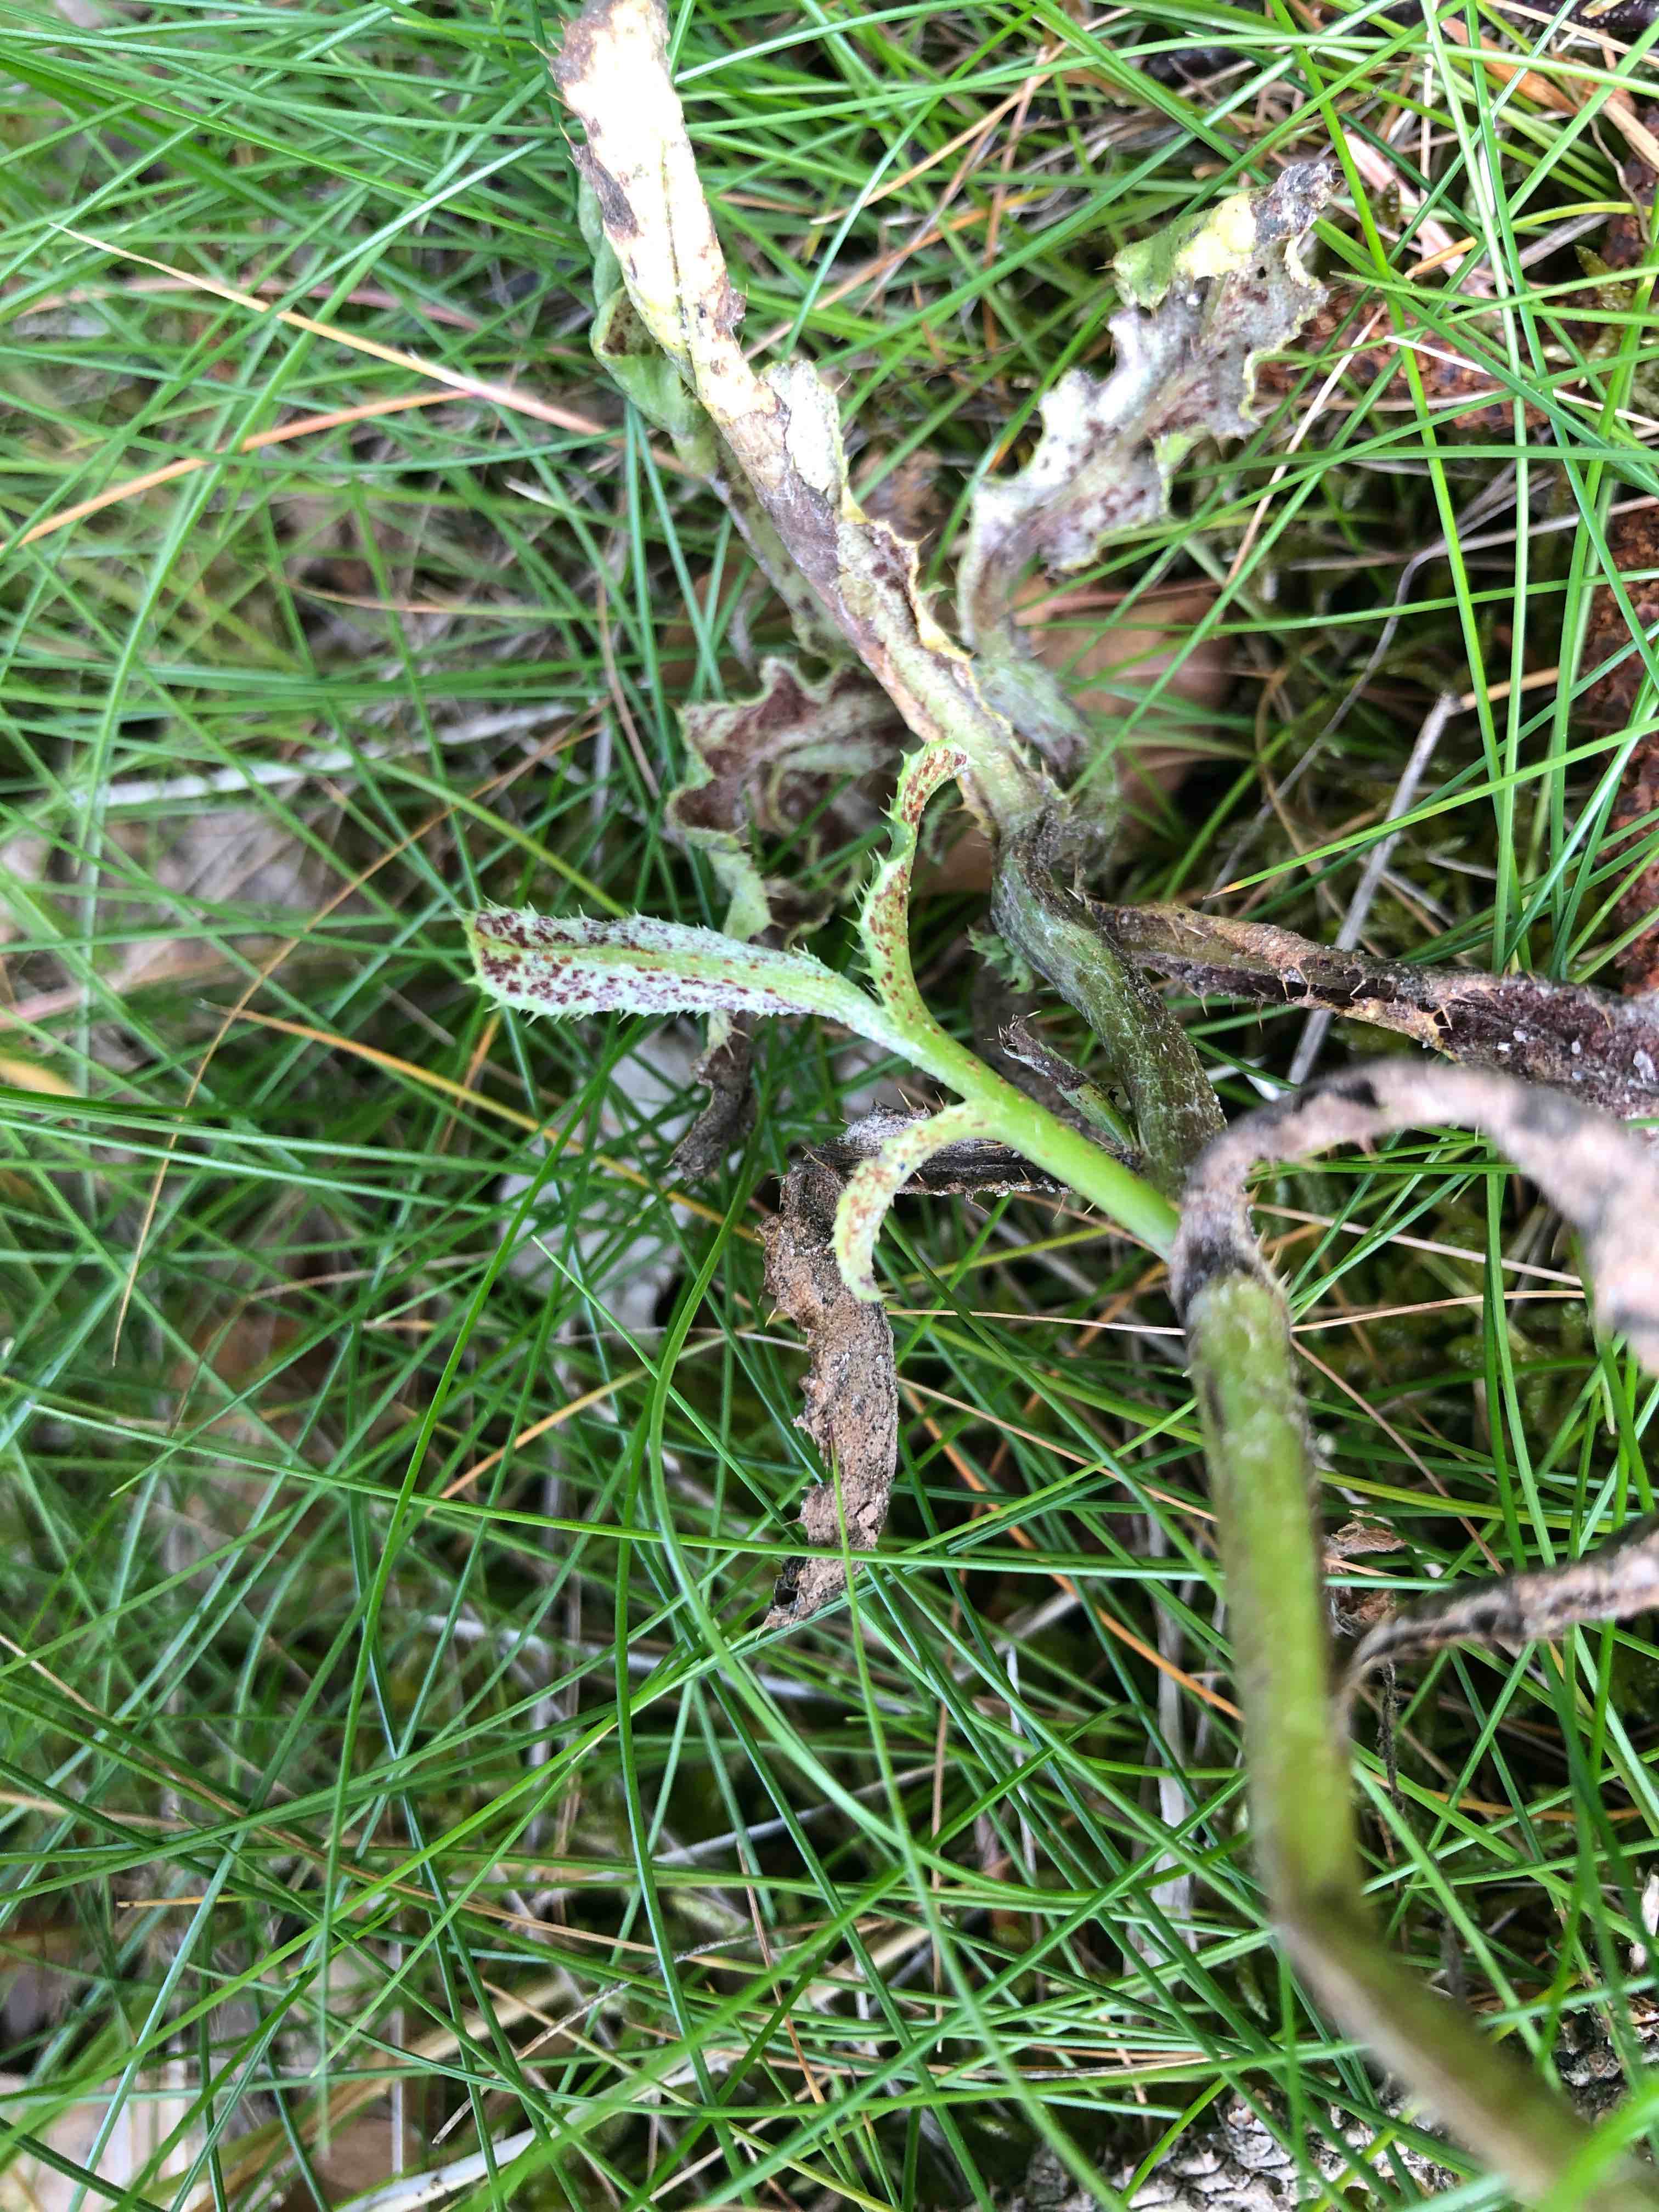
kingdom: Fungi
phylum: Basidiomycota
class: Pucciniomycetes
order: Pucciniales
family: Pucciniaceae
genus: Puccinia
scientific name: Puccinia suaveolens
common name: tidsel-tvecellerust
